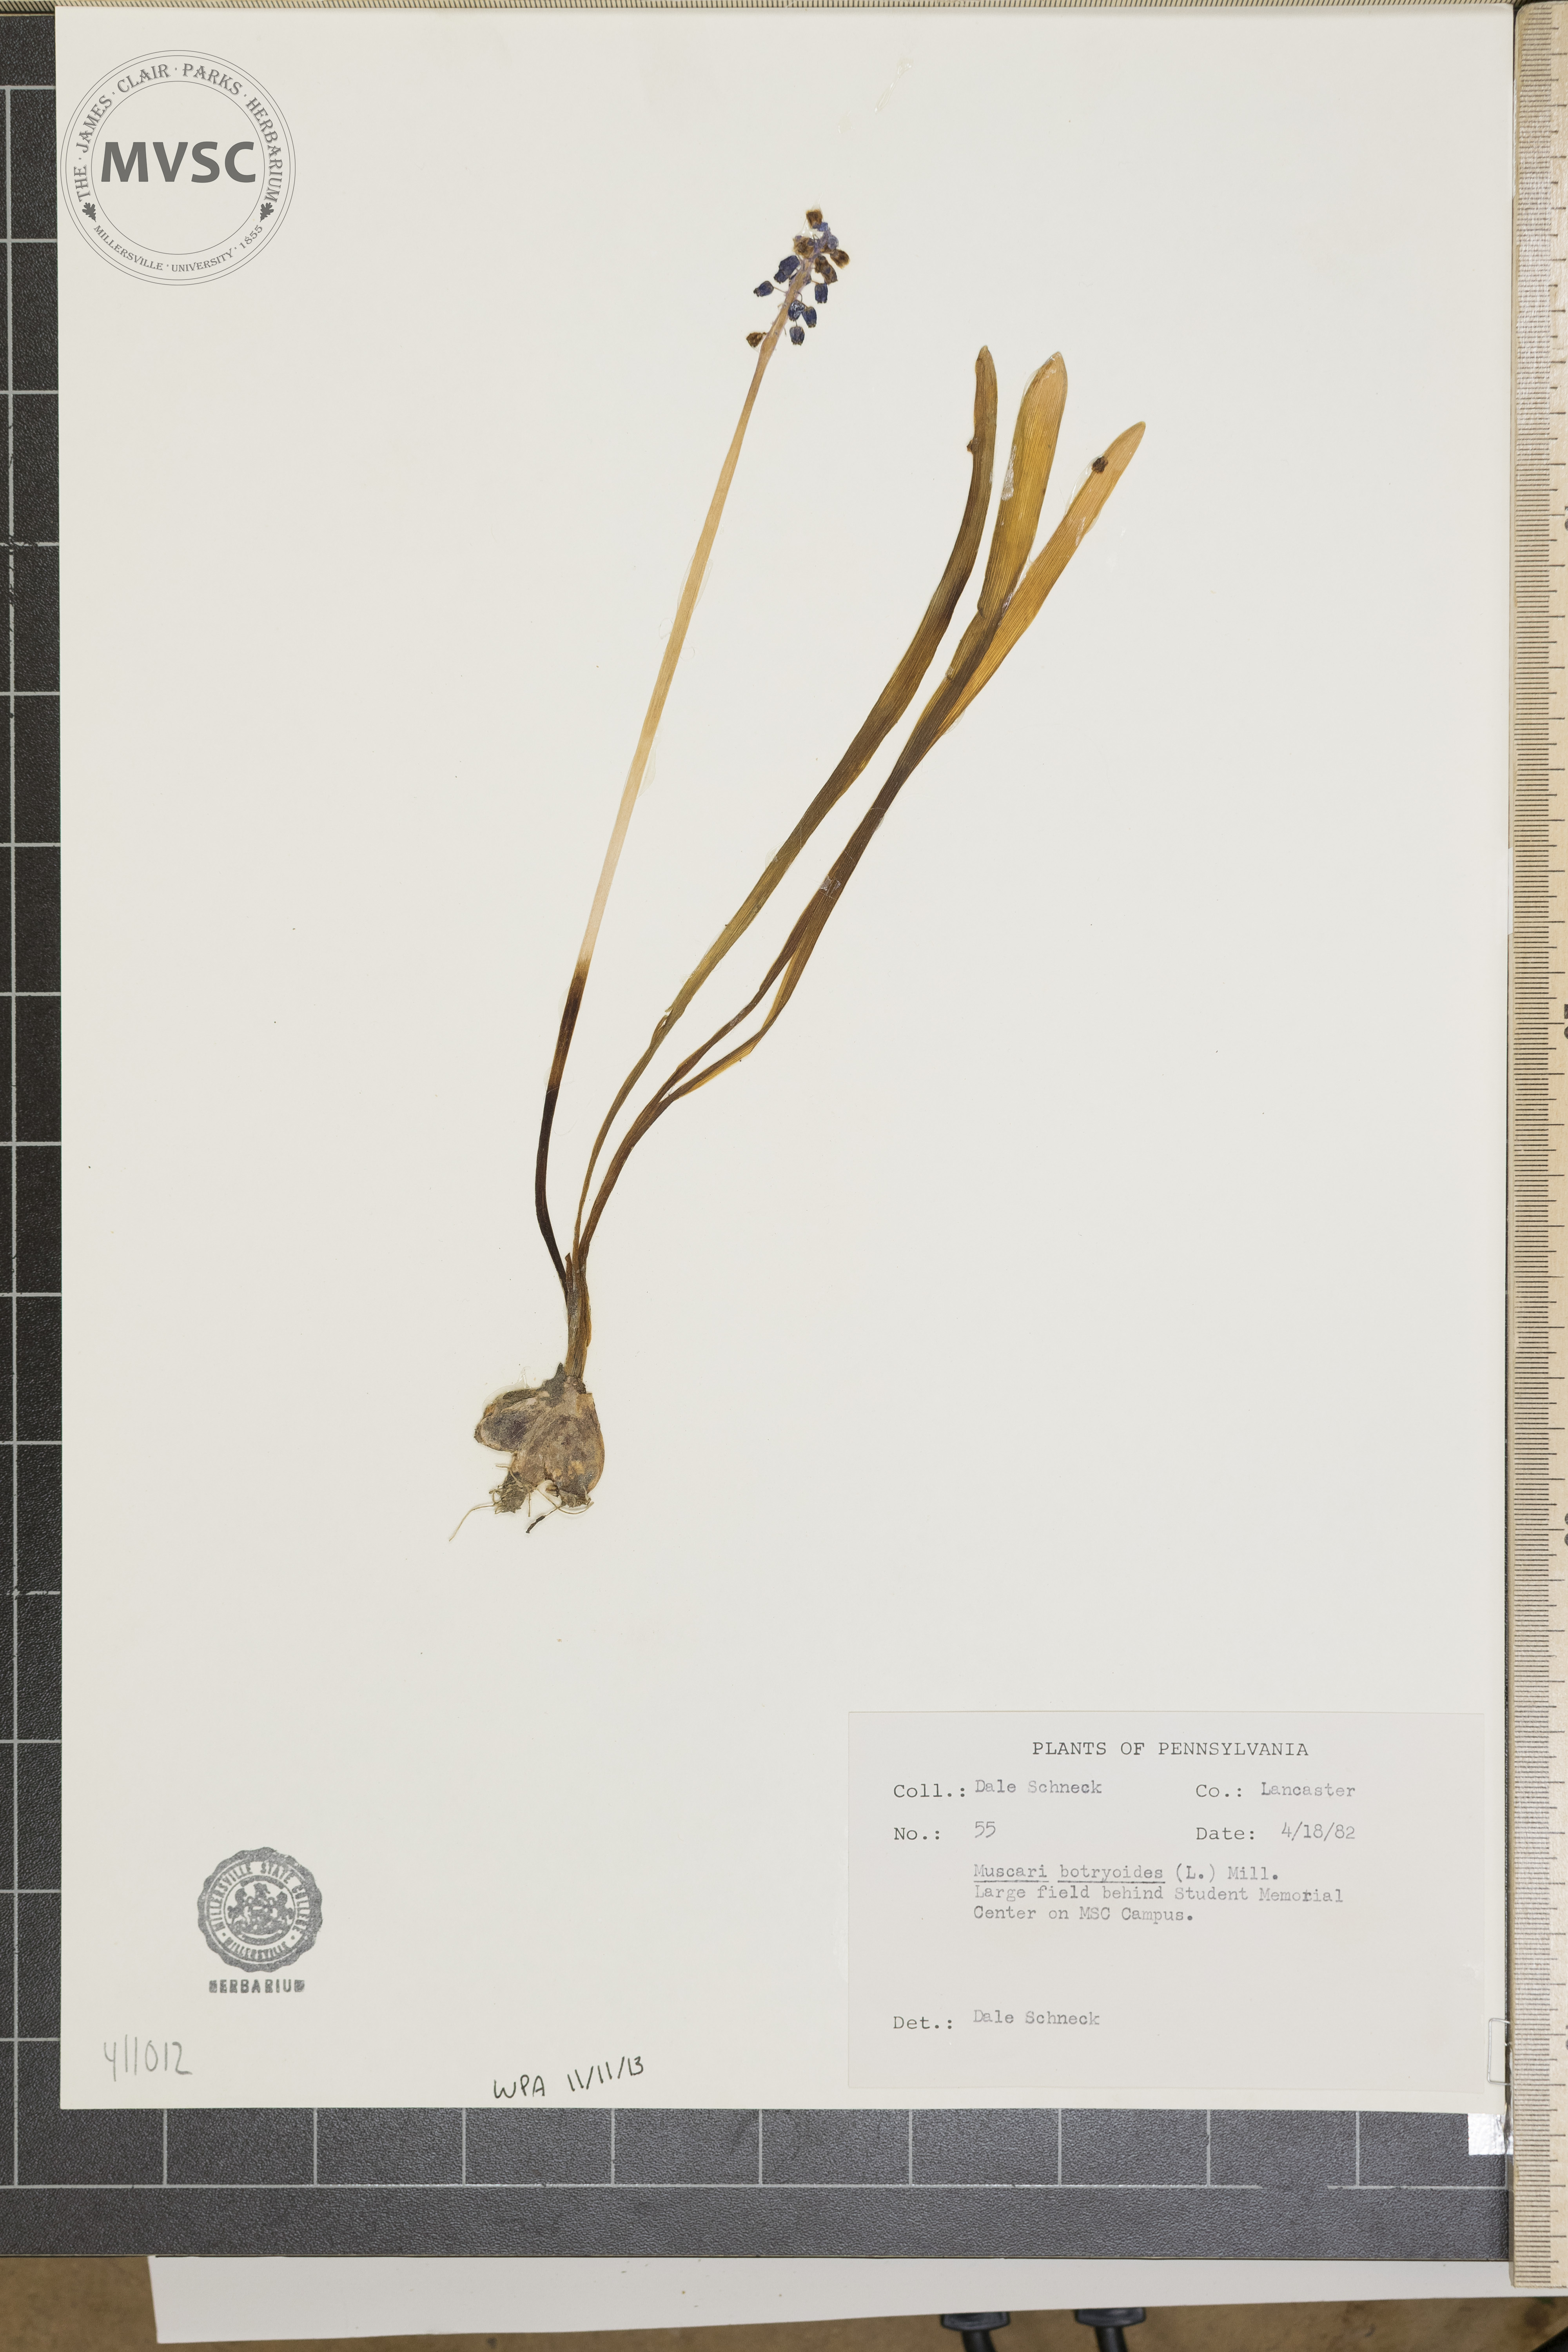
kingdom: Plantae
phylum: Tracheophyta
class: Liliopsida
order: Asparagales
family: Asparagaceae
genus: Muscari
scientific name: Muscari botryoides
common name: Compact grape-hyacinth
